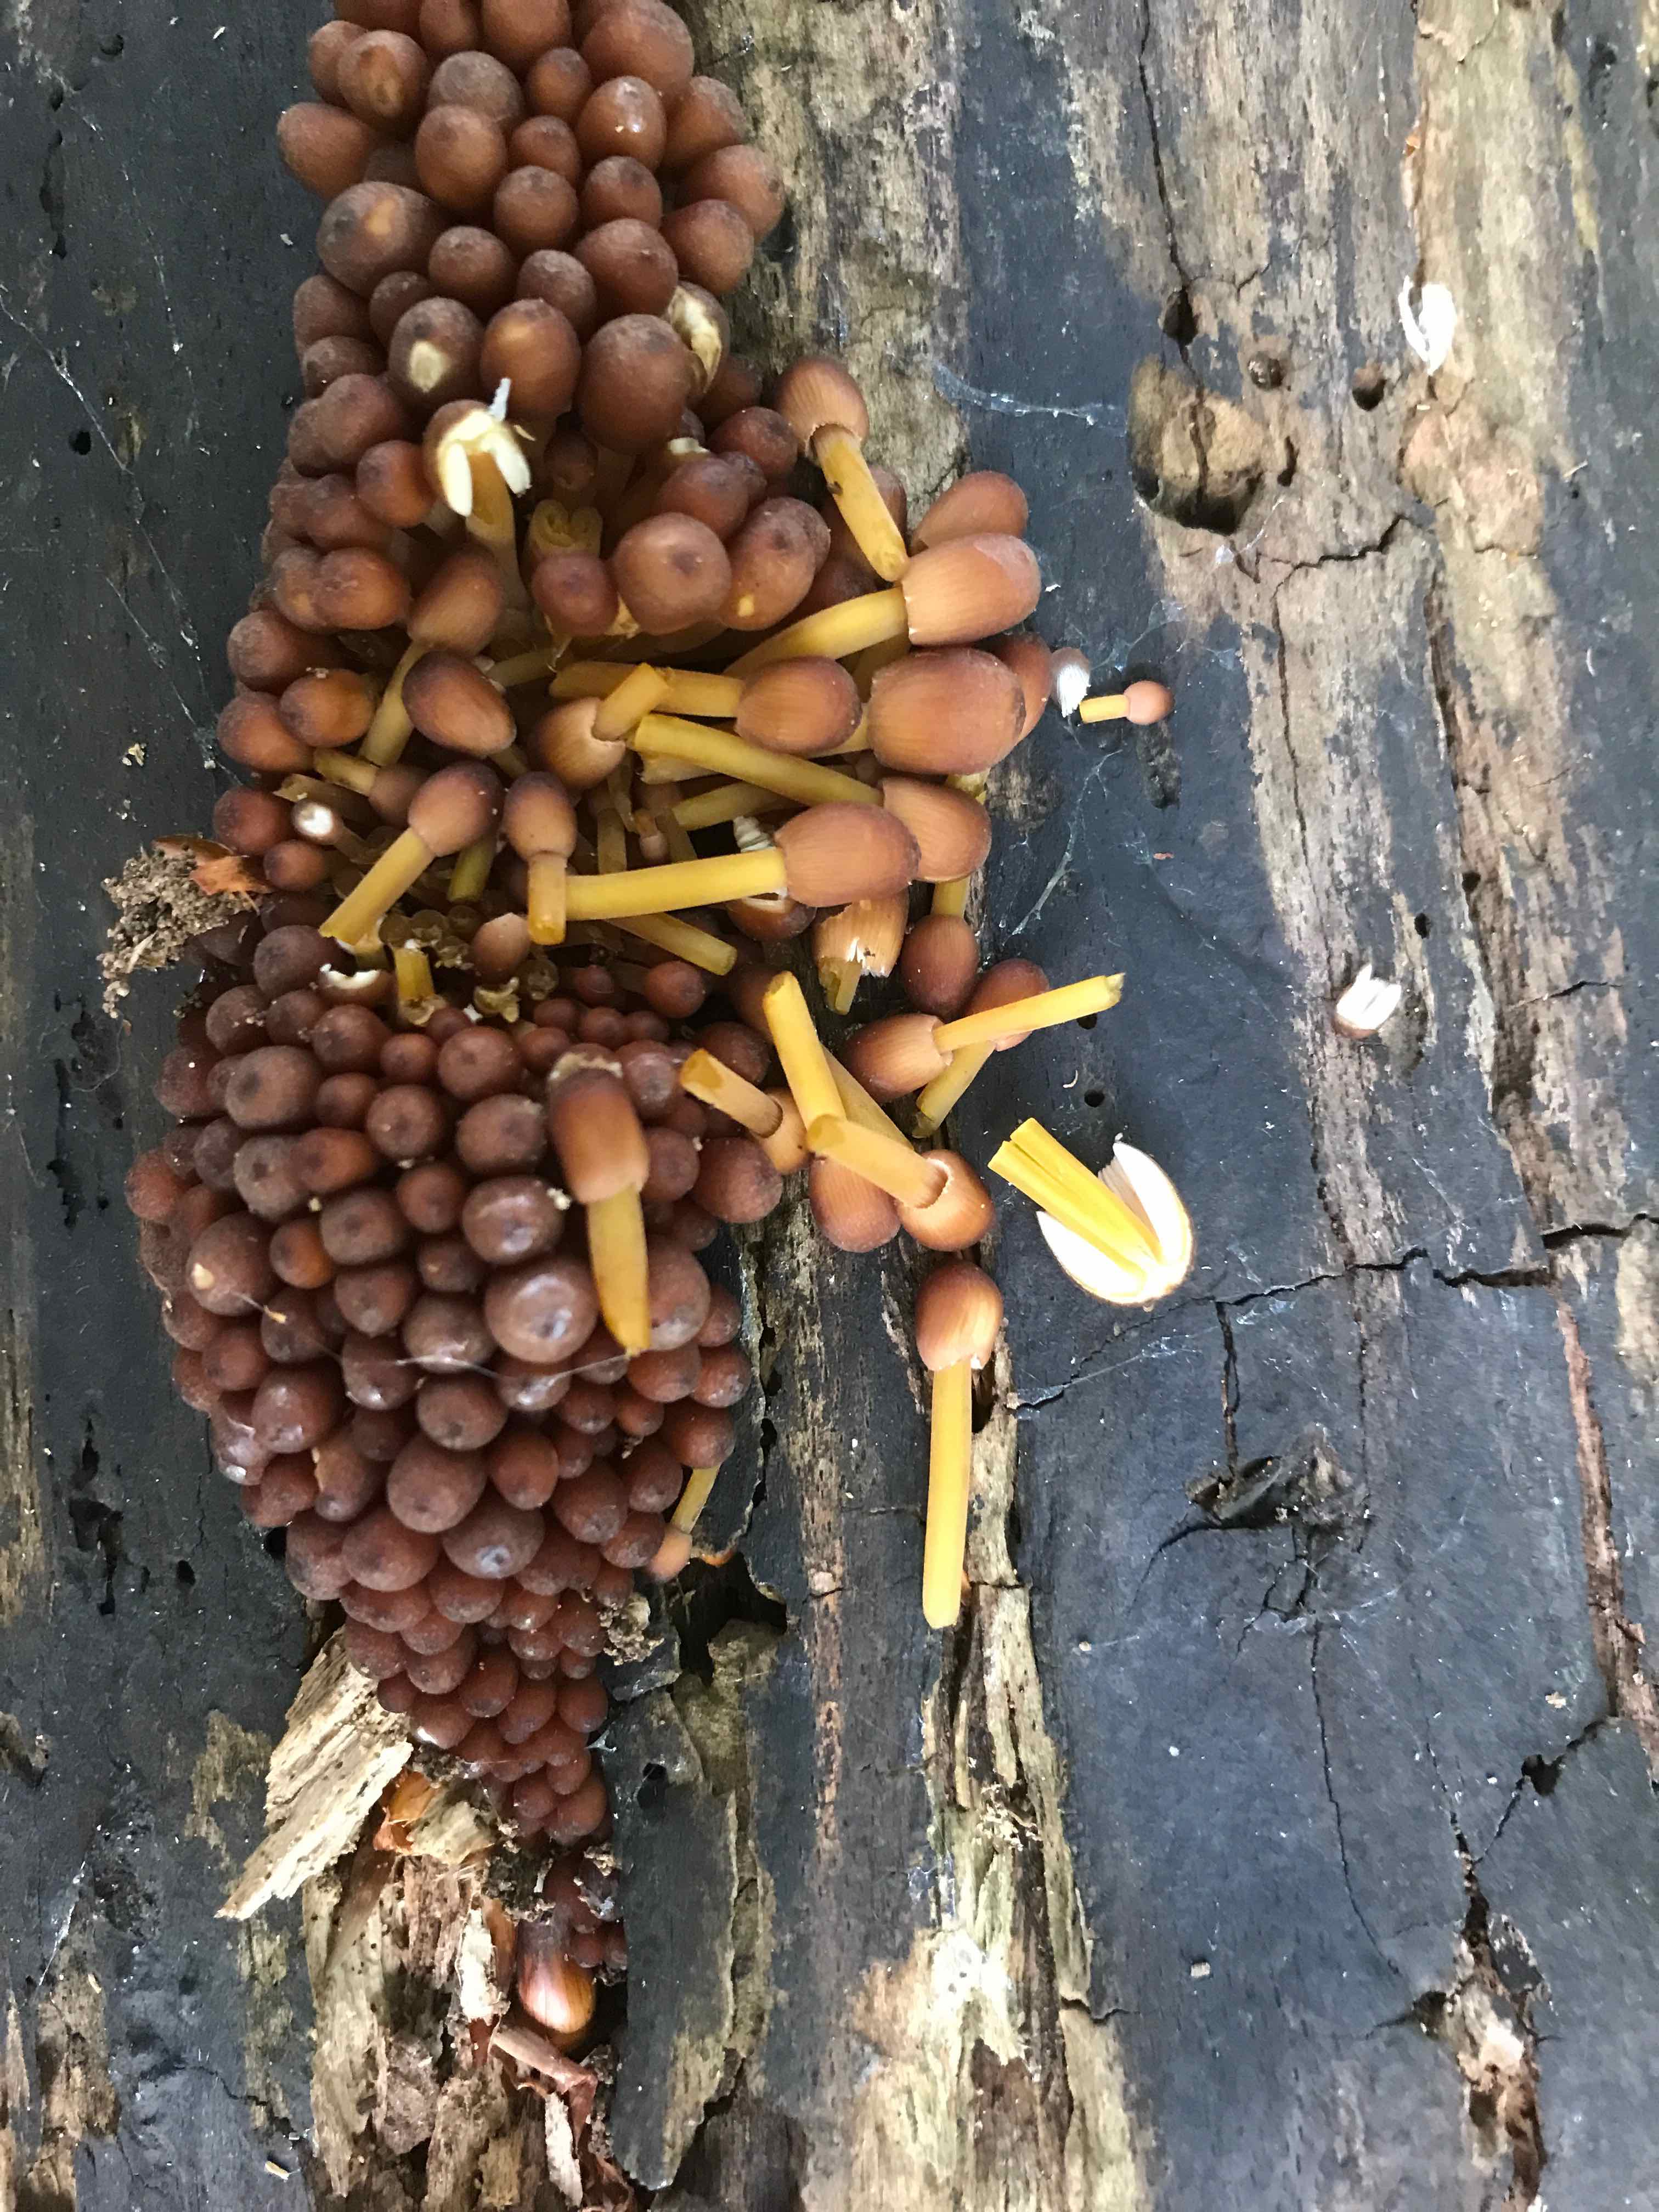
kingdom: Fungi
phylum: Basidiomycota
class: Agaricomycetes
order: Agaricales
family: Mycenaceae
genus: Mycena
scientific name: Mycena renati
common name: smuk huesvamp
